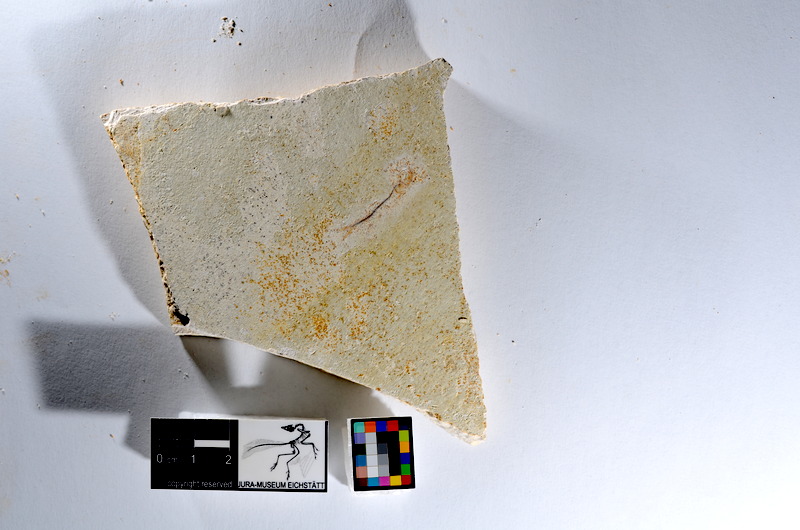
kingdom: Animalia
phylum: Chordata
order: Salmoniformes
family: Orthogonikleithridae
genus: Orthogonikleithrus
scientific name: Orthogonikleithrus hoelli
